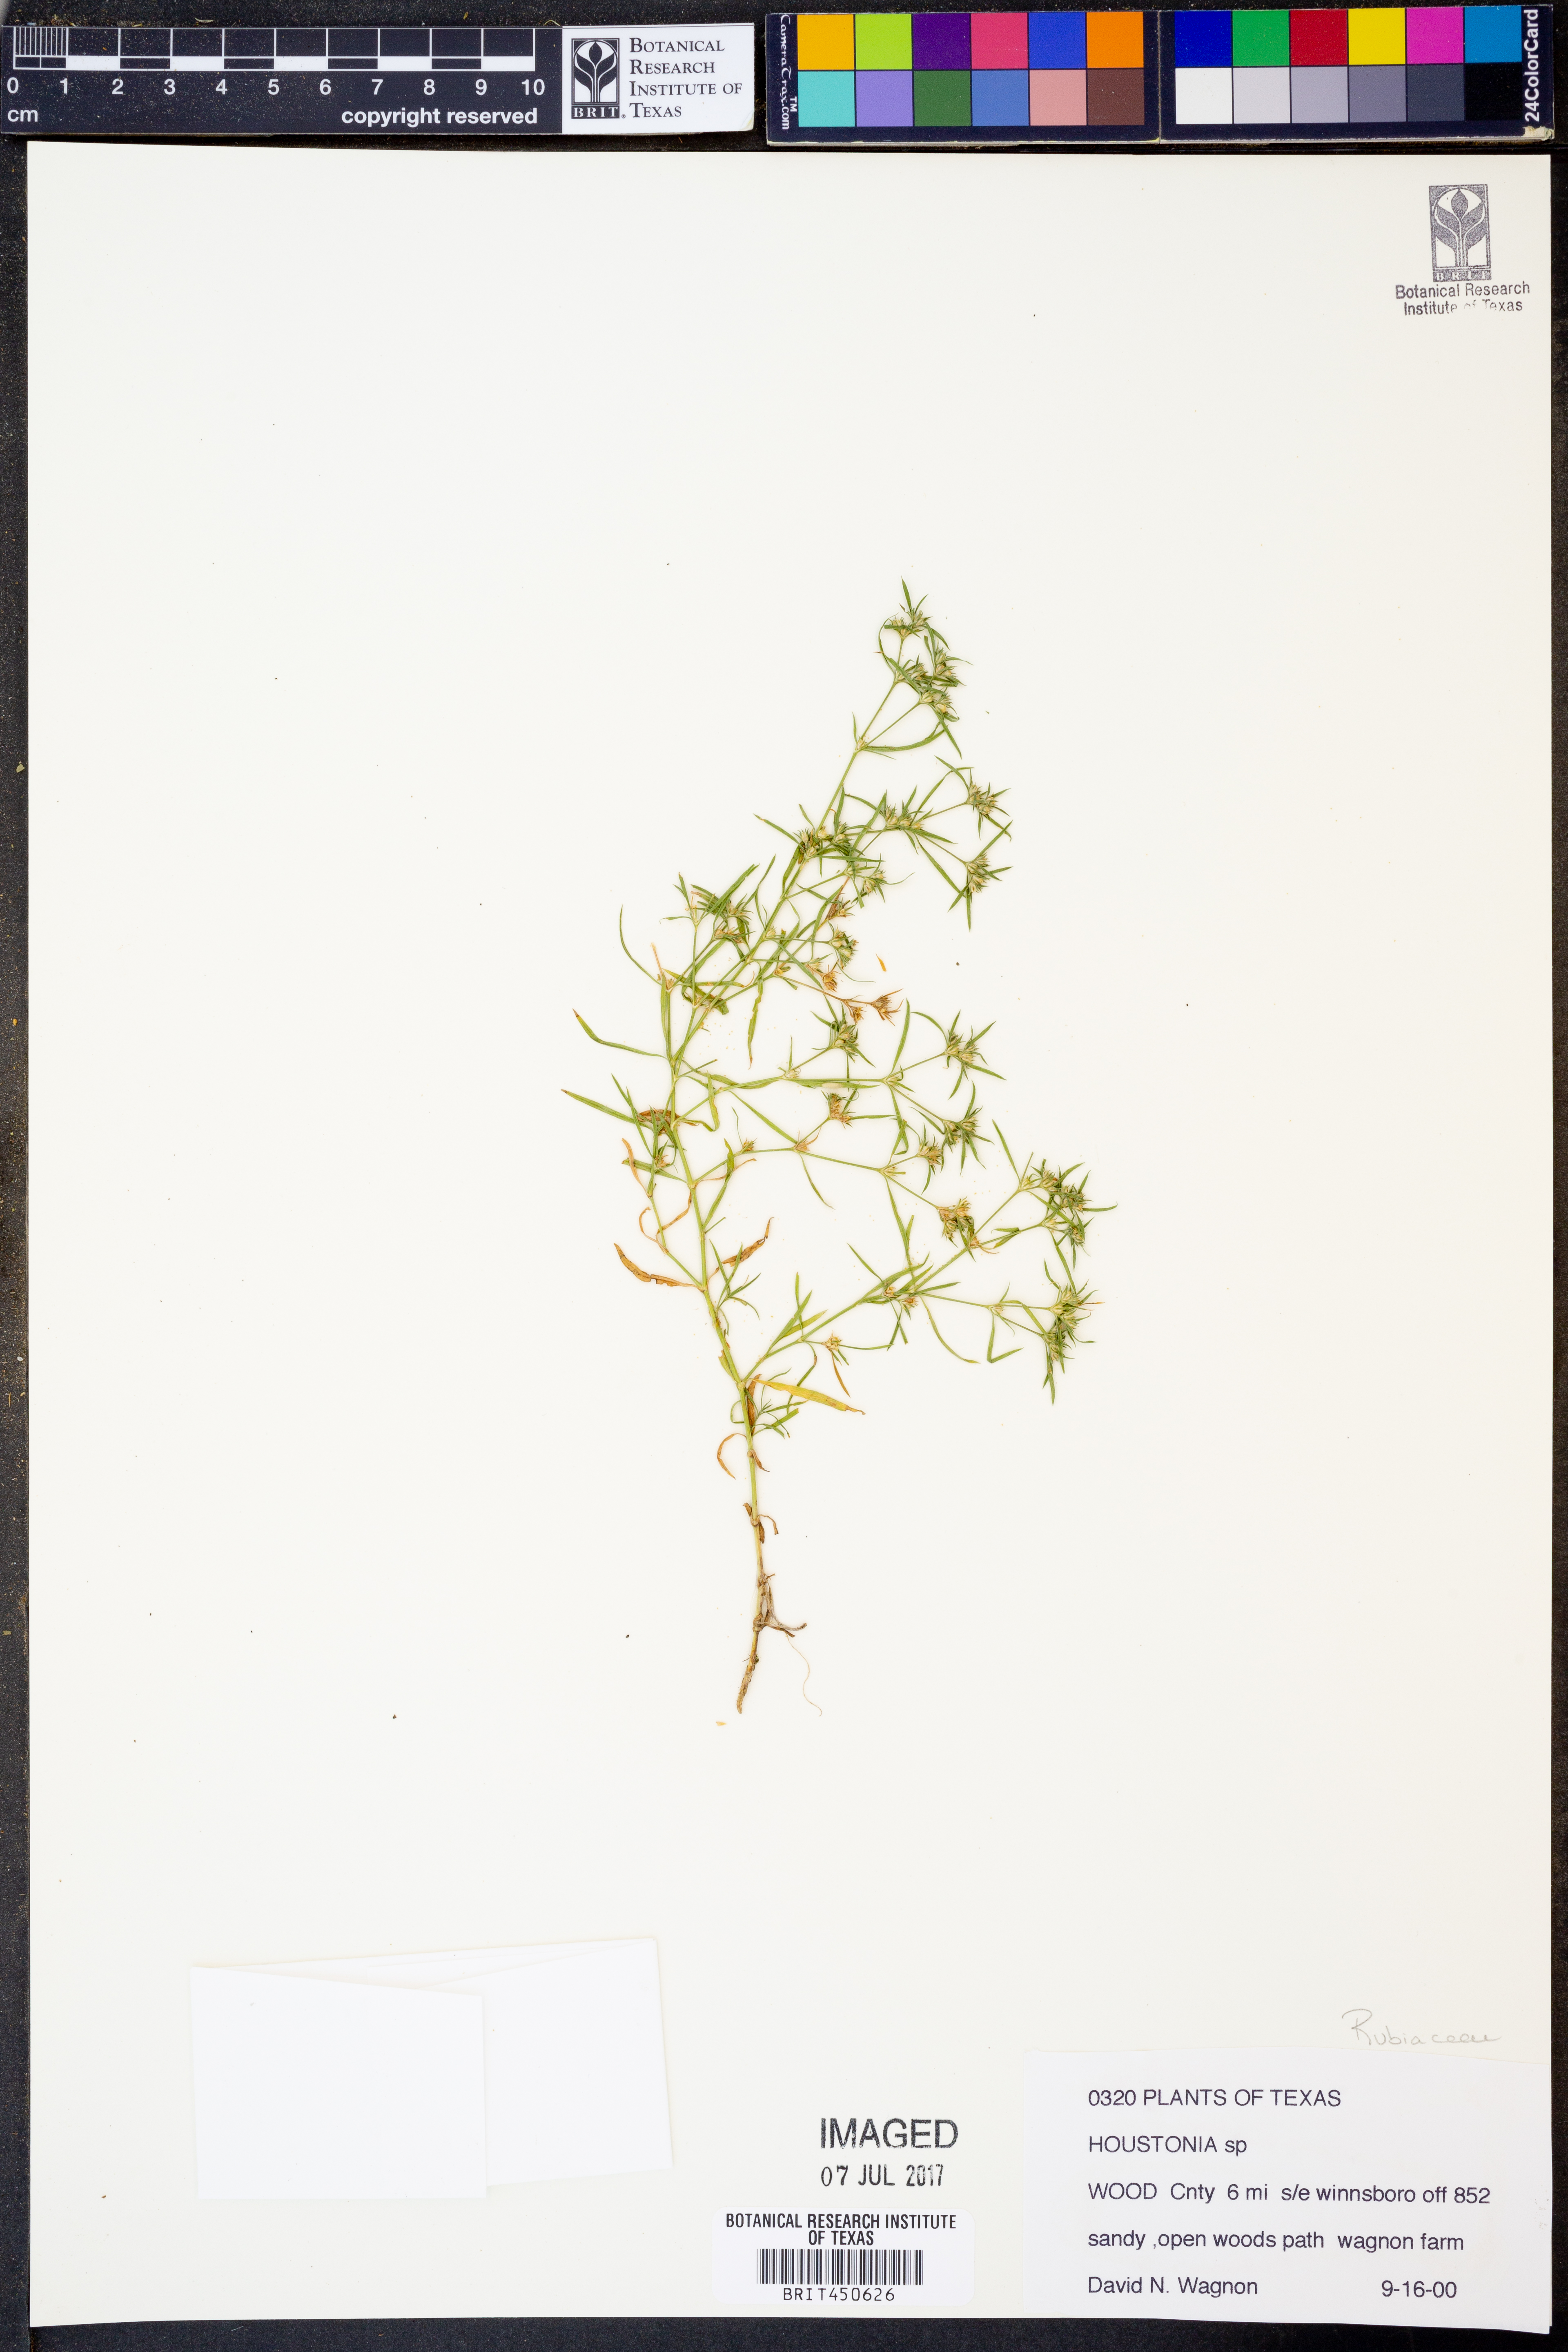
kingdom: Plantae
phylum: Tracheophyta
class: Magnoliopsida
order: Gentianales
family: Rubiaceae
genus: Houstonia
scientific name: Houstonia
